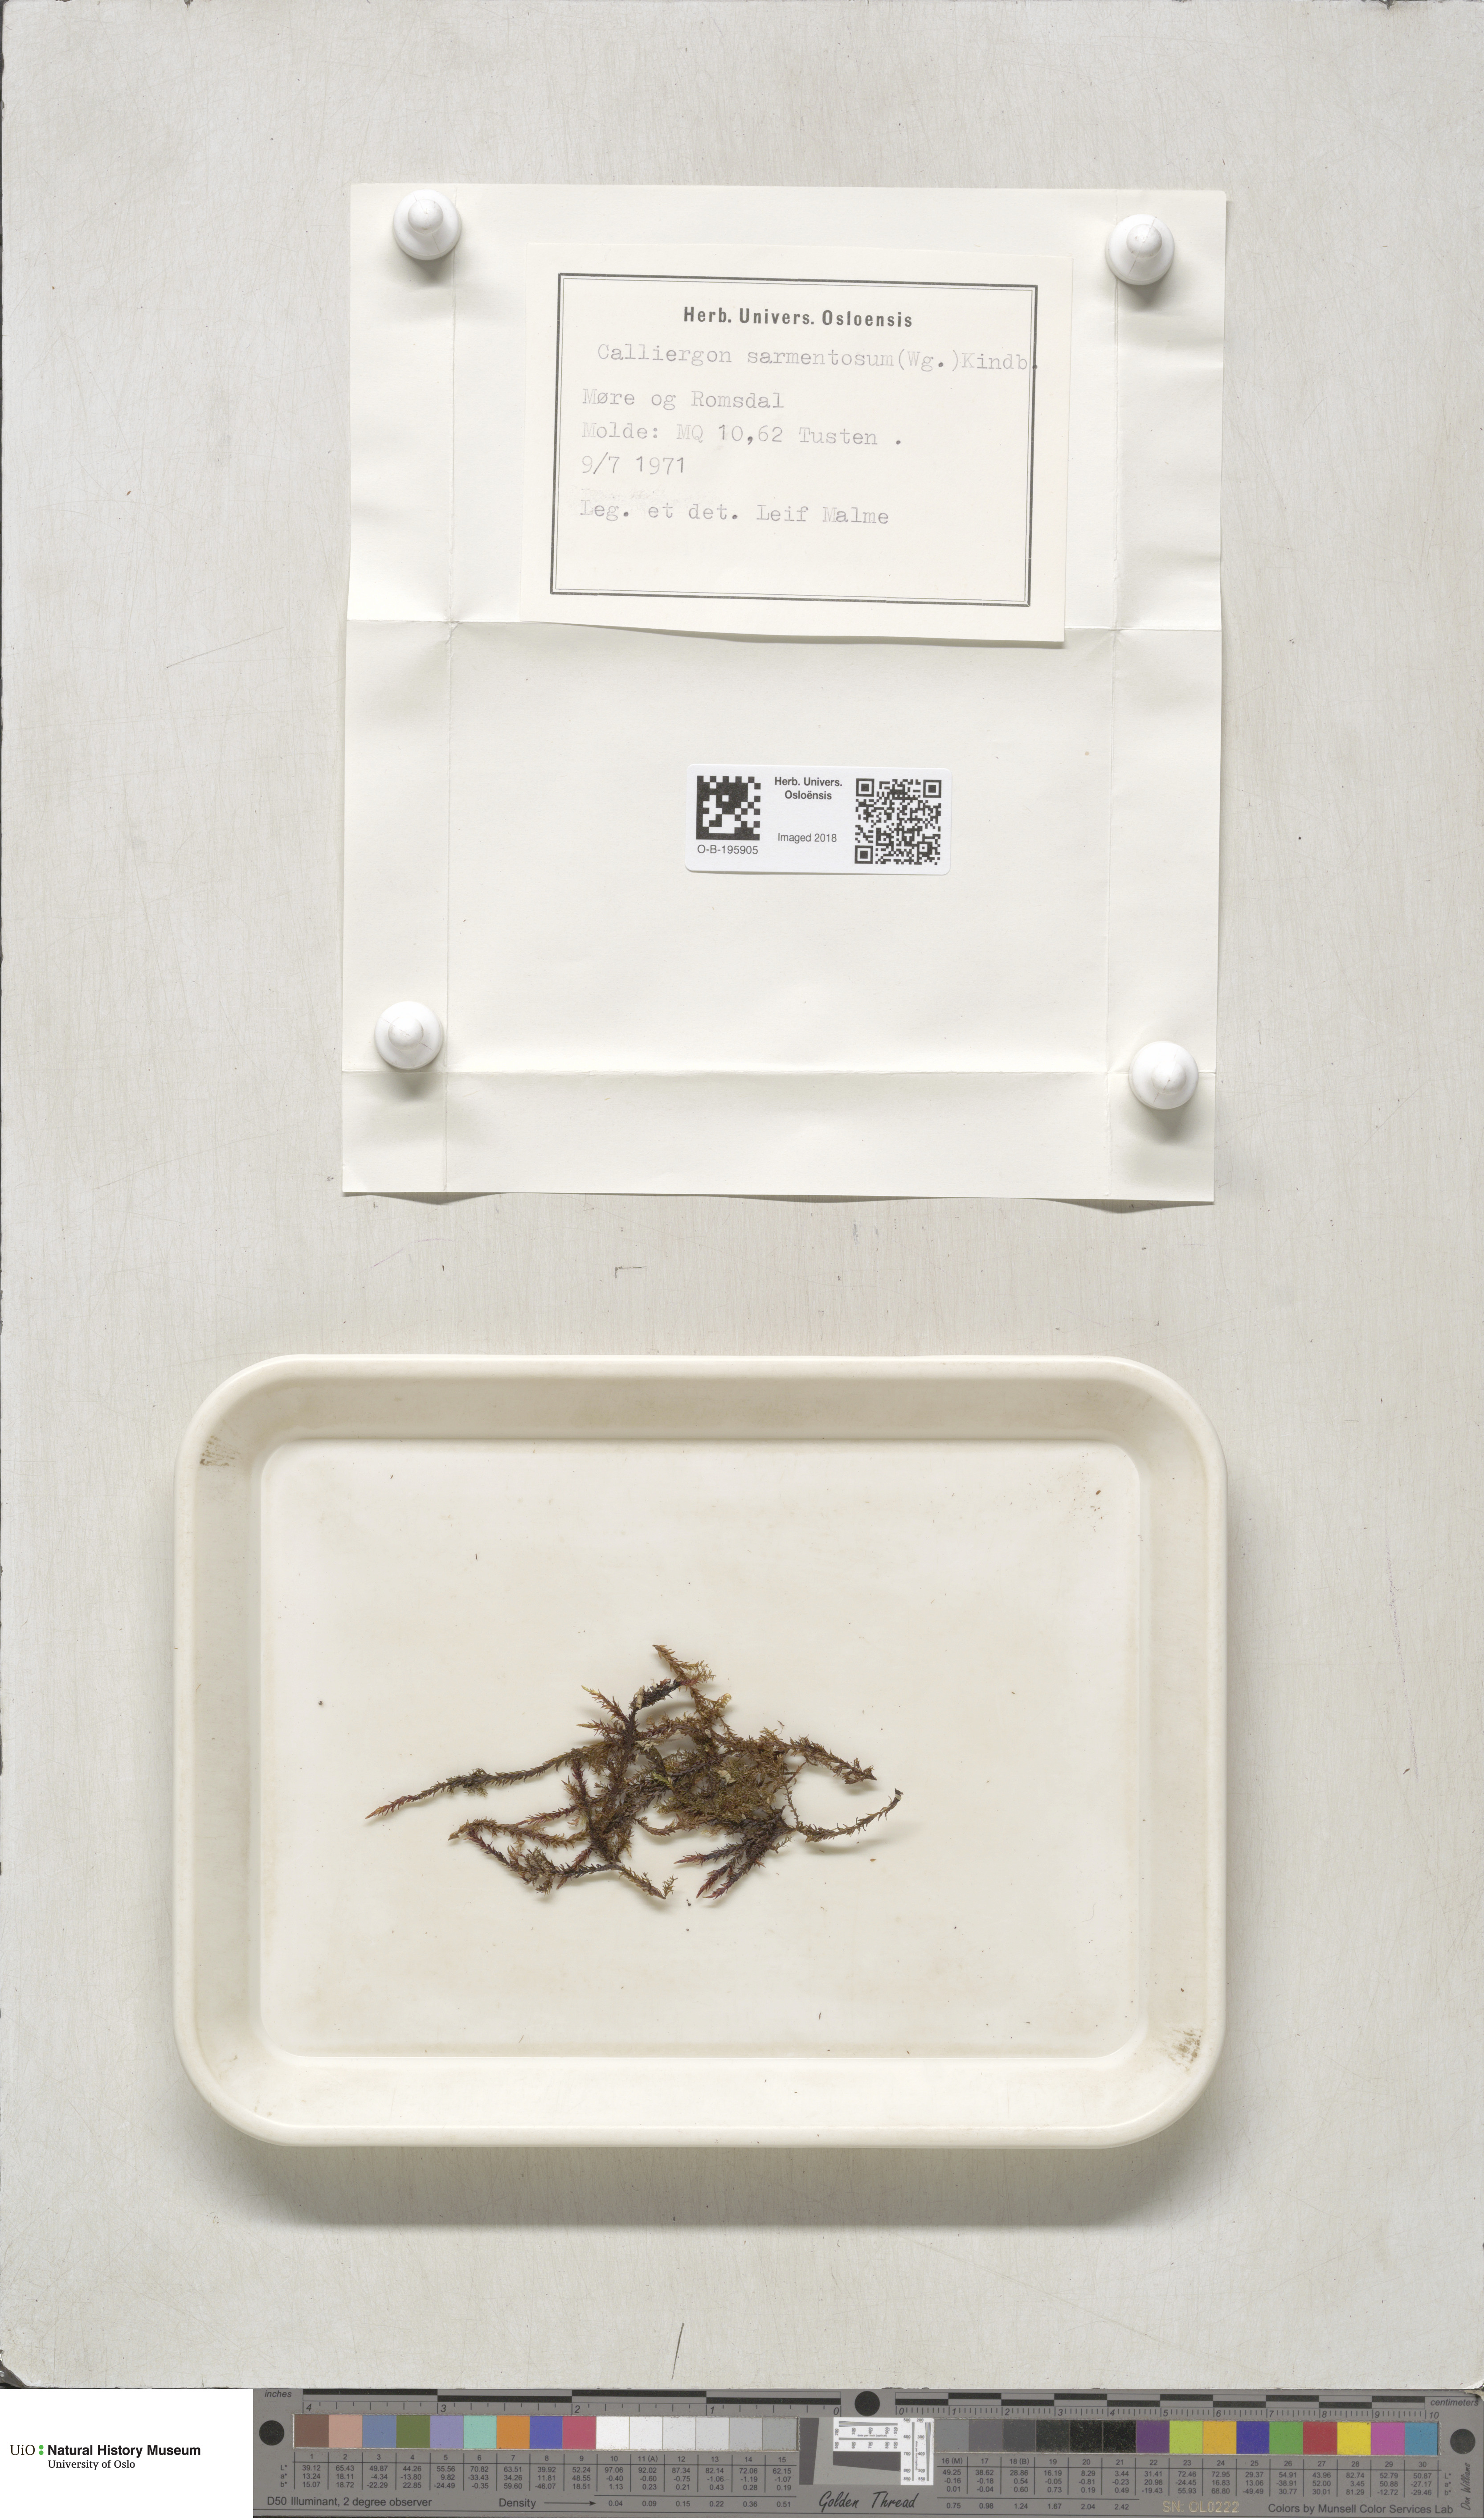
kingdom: Plantae
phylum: Bryophyta
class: Bryopsida
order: Hypnales
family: Calliergonaceae
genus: Sarmentypnum
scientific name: Sarmentypnum sarmentosum
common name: Twiggy spoon moss
